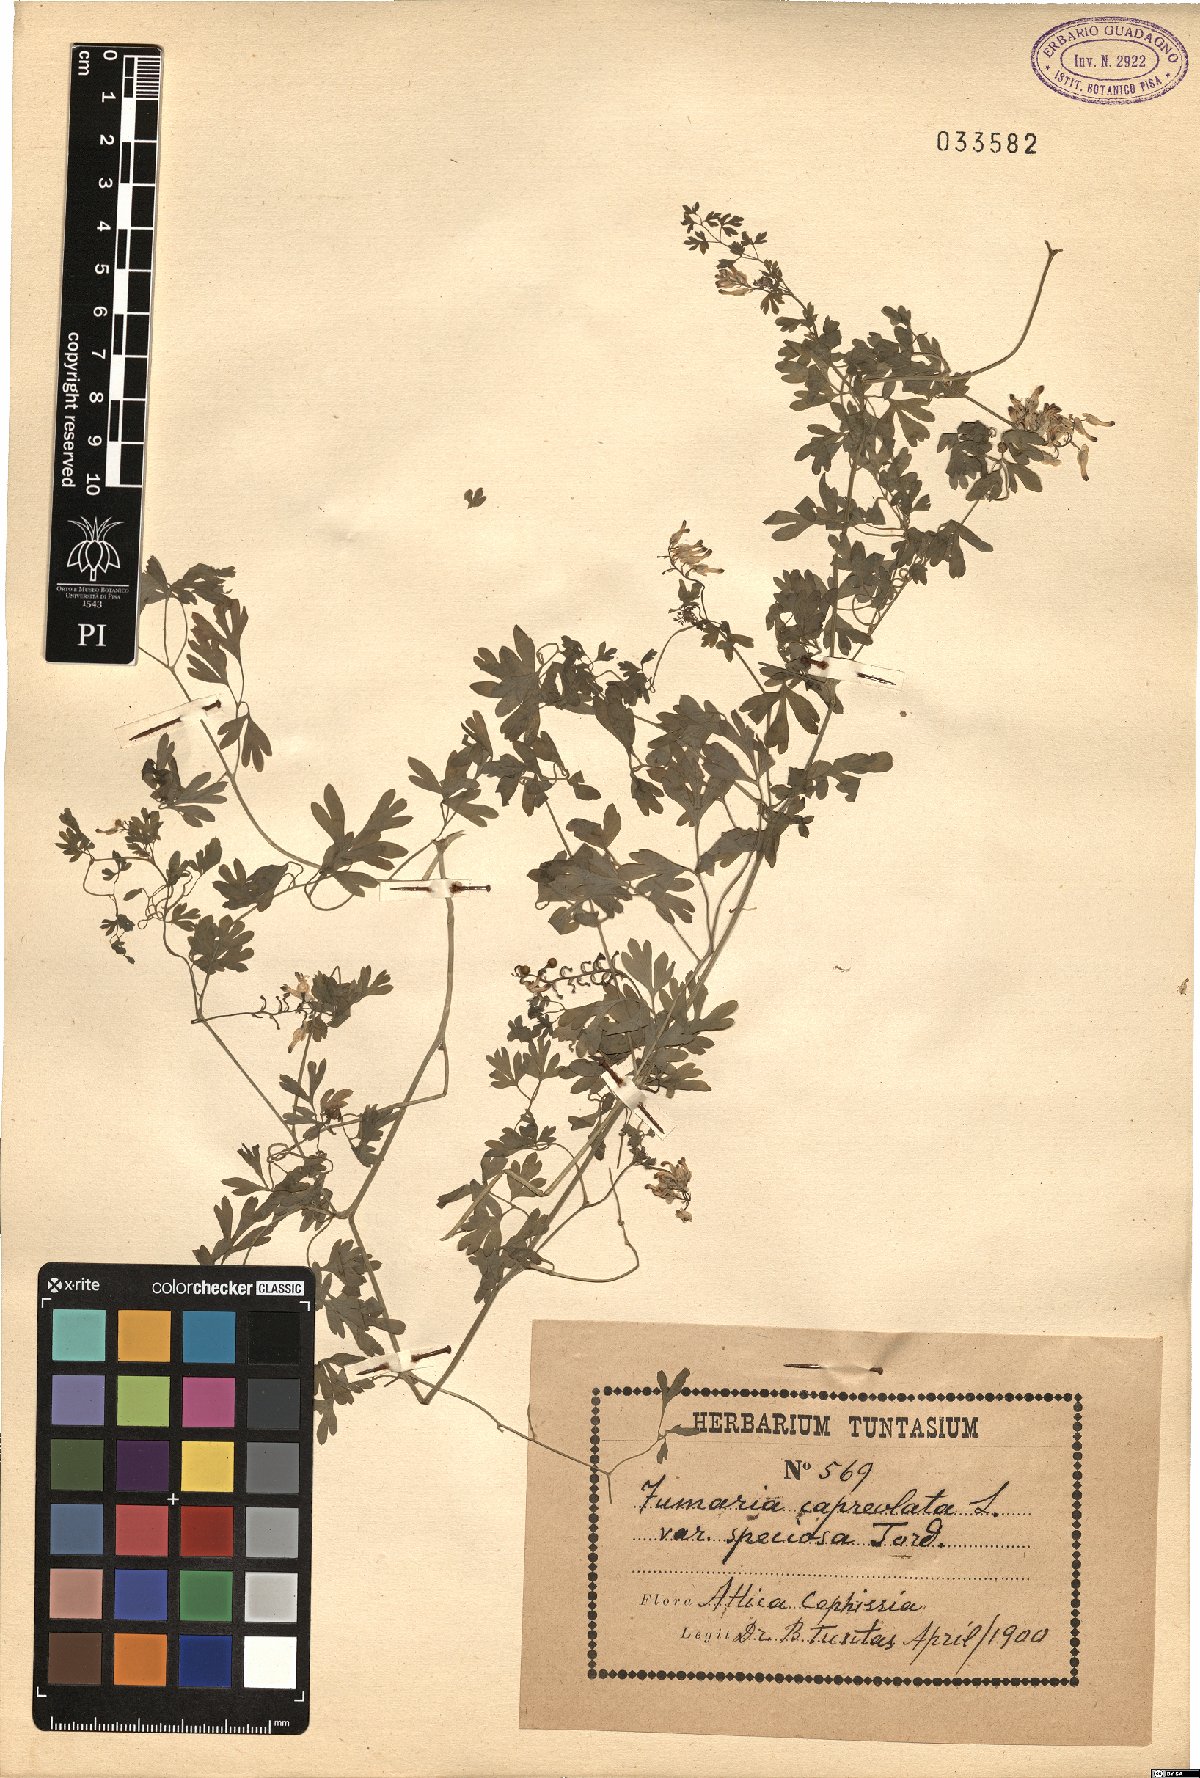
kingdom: Plantae
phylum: Tracheophyta
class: Magnoliopsida
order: Ranunculales
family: Papaveraceae
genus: Fumaria
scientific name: Fumaria capreolata
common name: White ramping-fumitory
